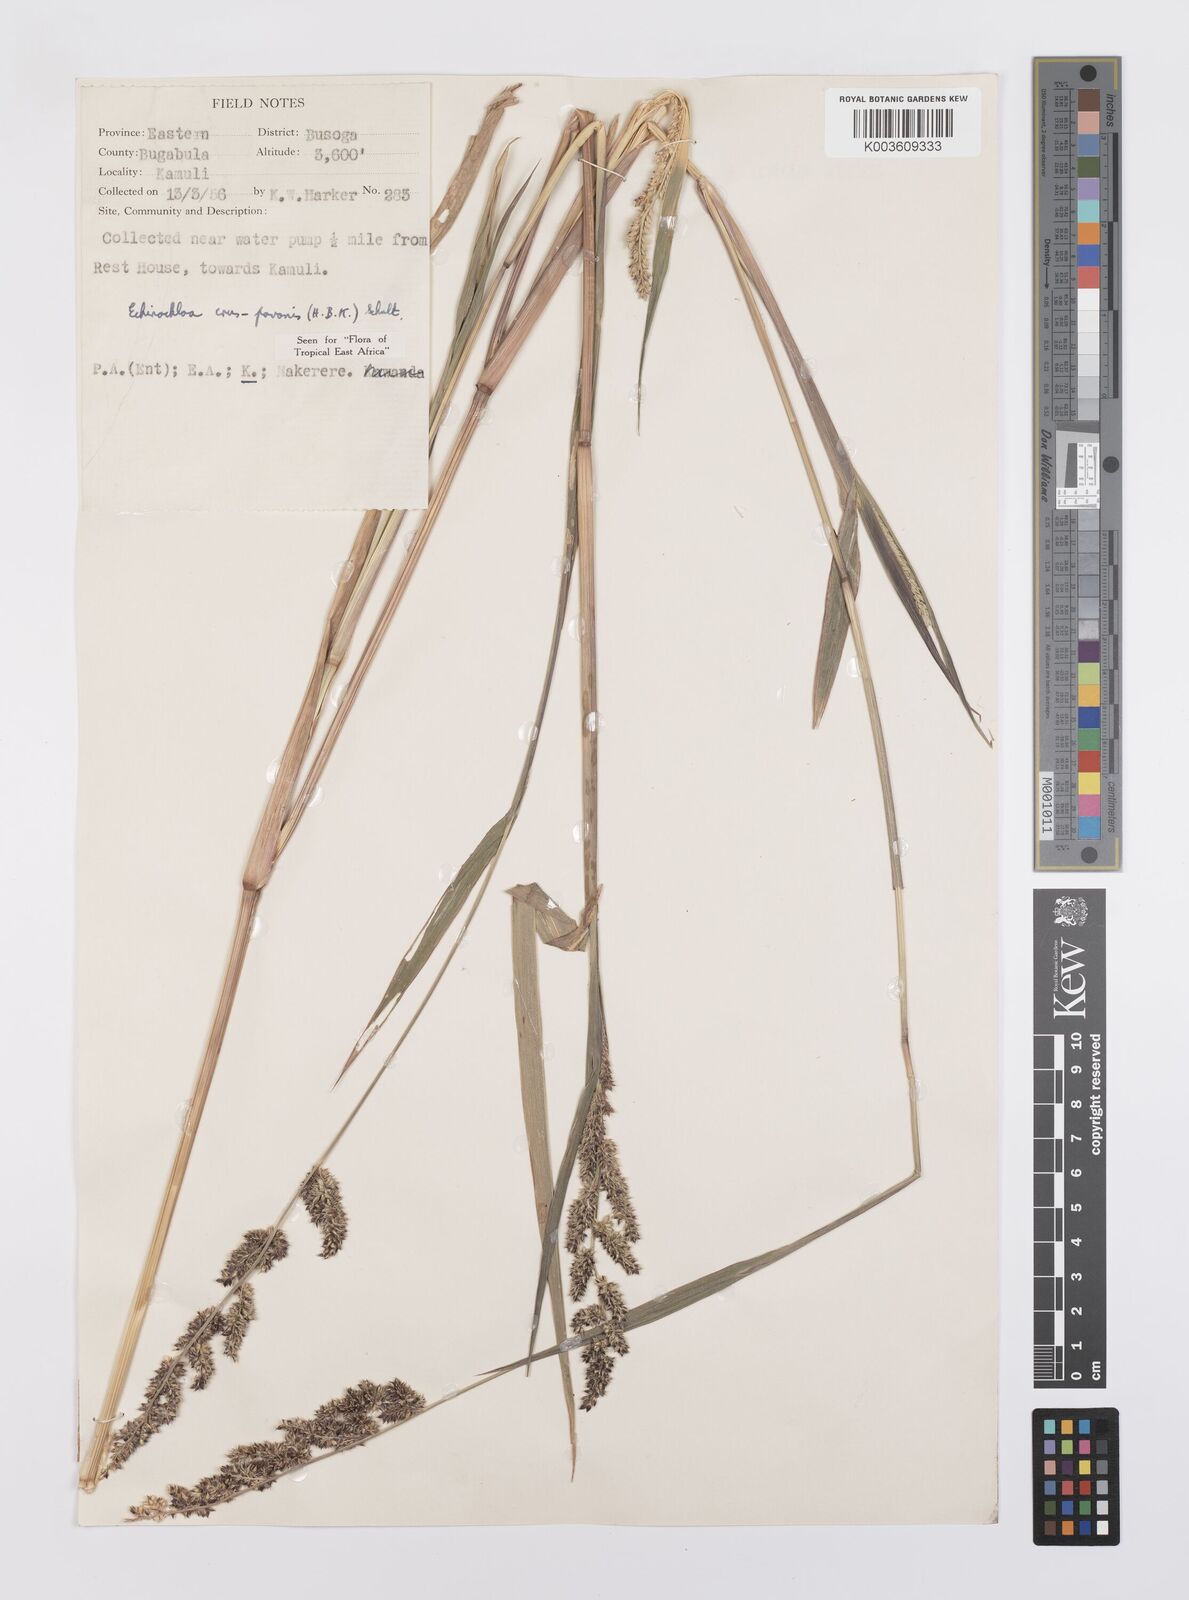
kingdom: Plantae
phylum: Tracheophyta
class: Liliopsida
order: Poales
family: Poaceae
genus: Echinochloa
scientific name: Echinochloa crus-pavonis
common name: Gulf cockspur grass
